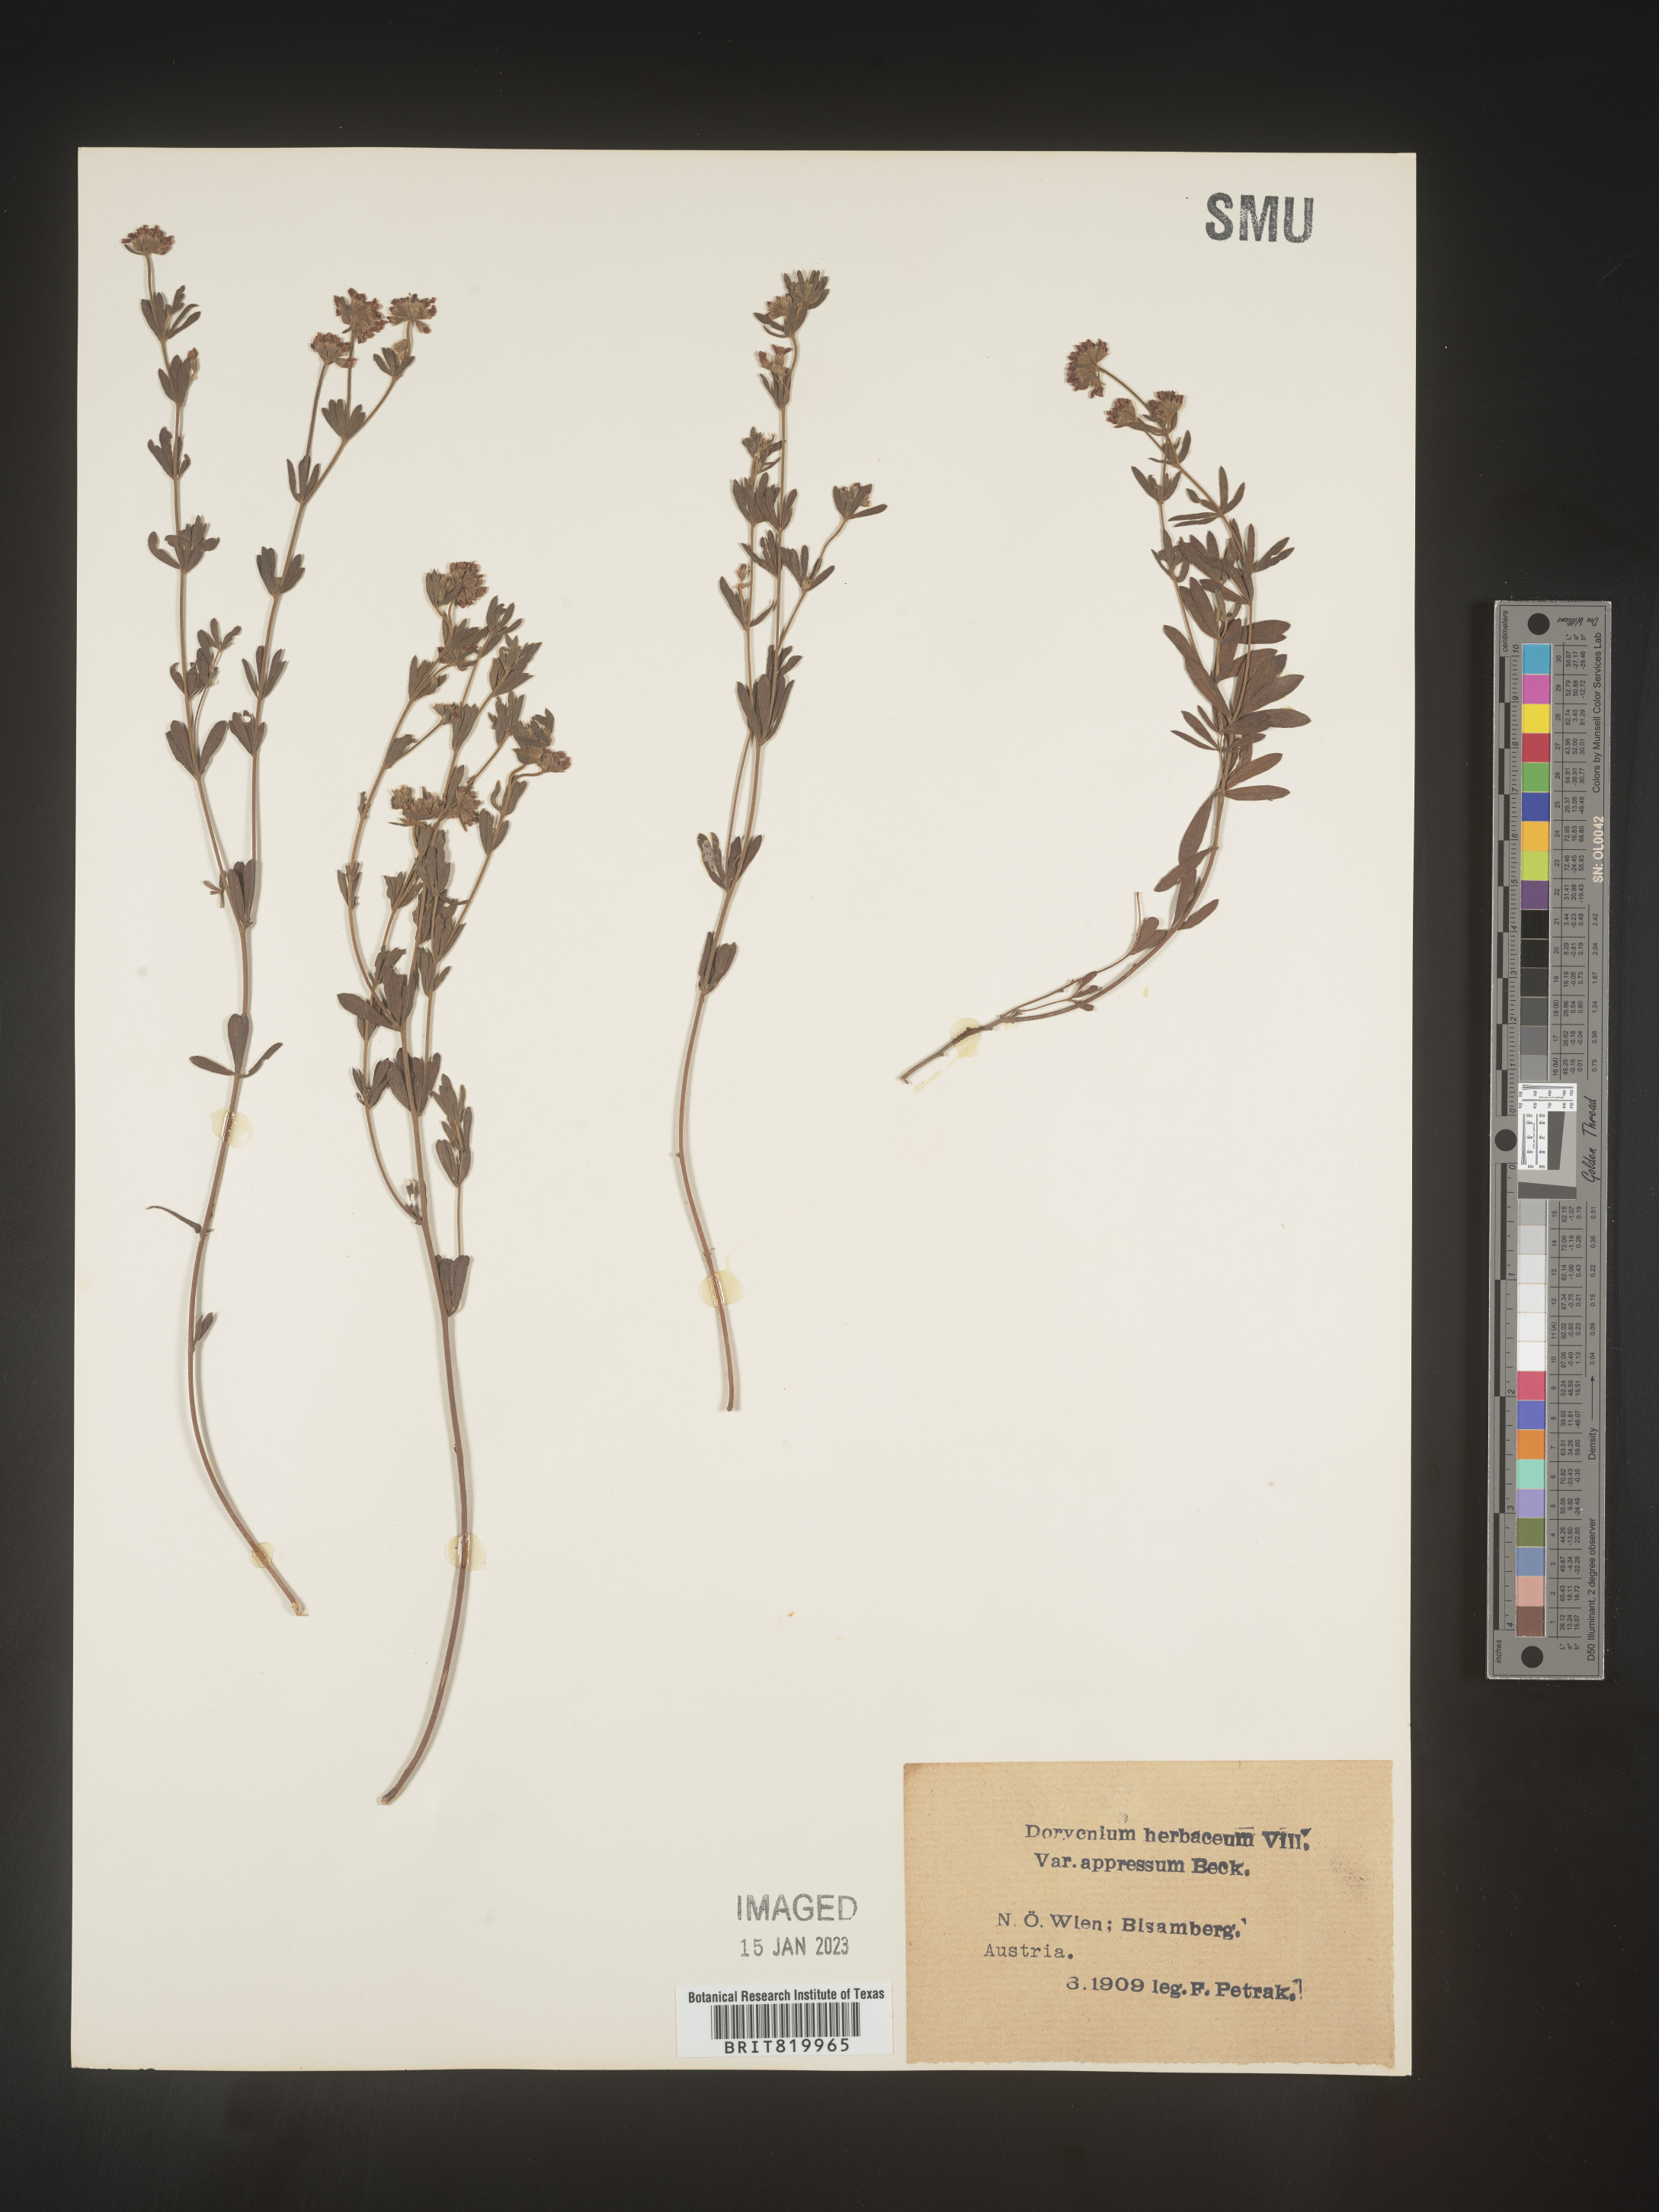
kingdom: Plantae
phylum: Tracheophyta
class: Magnoliopsida
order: Fabales
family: Fabaceae
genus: Lotus
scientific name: Lotus
